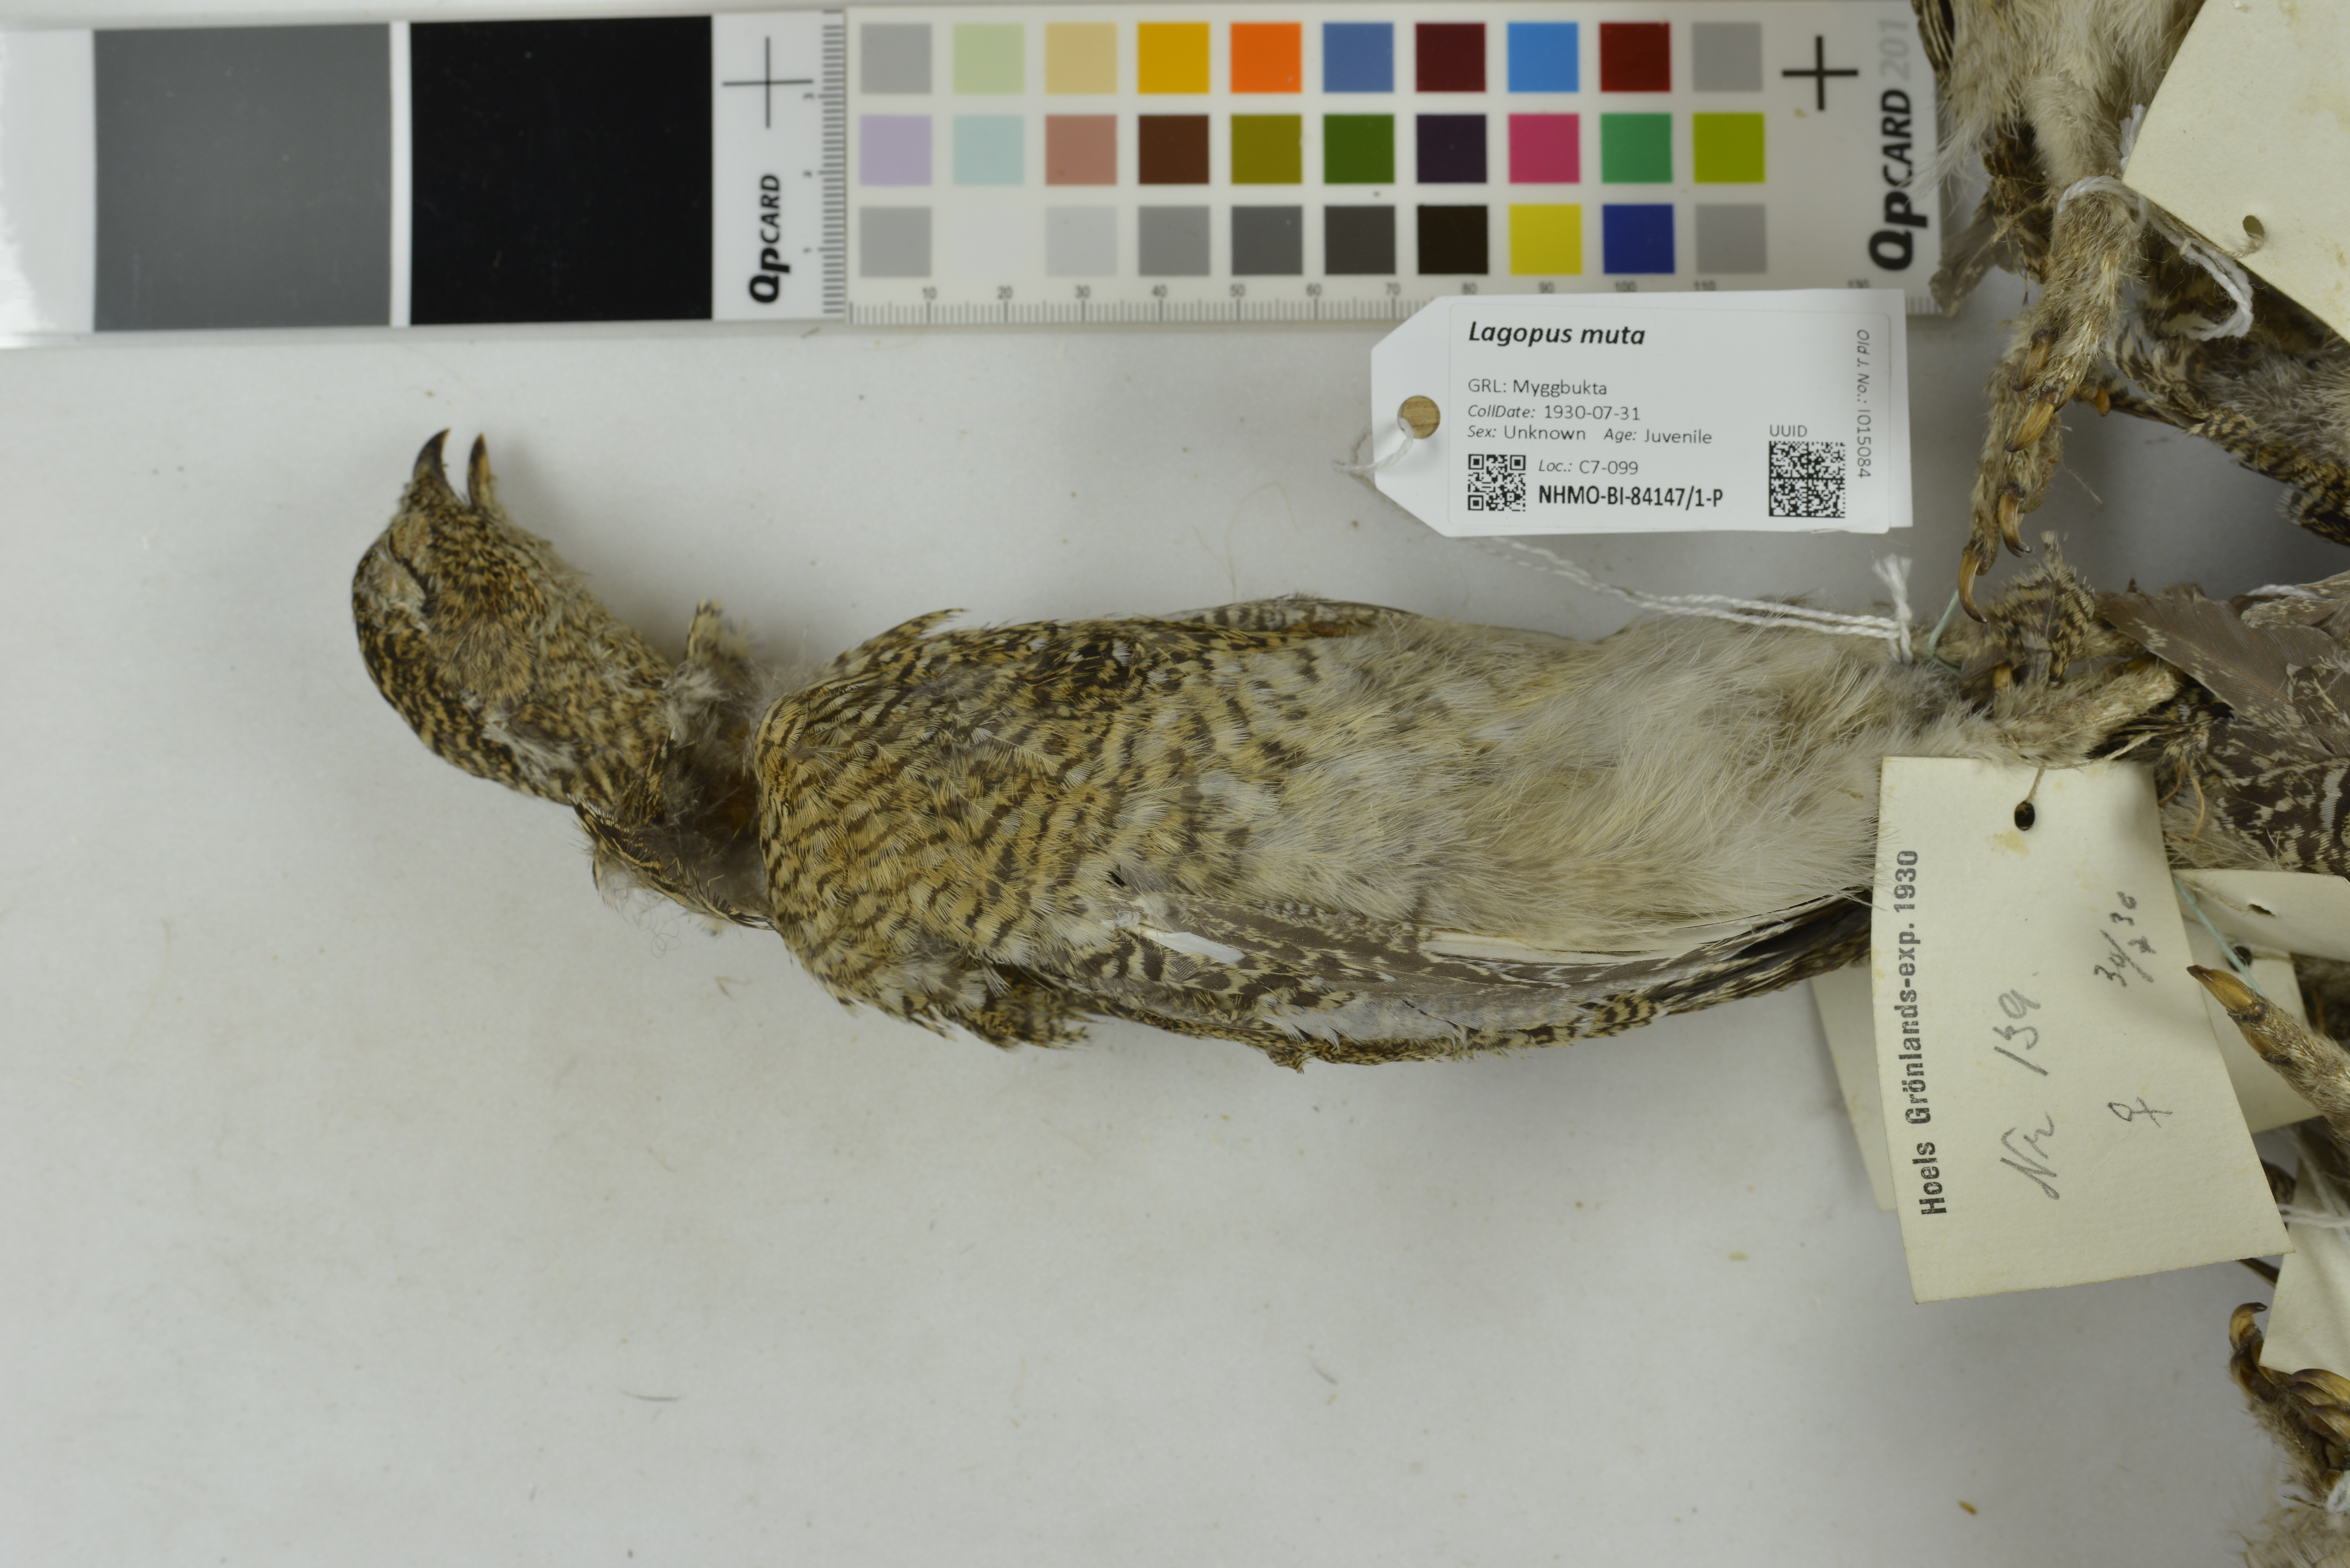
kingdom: Animalia
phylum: Chordata
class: Aves
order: Galliformes
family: Phasianidae
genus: Lagopus
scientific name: Lagopus muta
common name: Rock ptarmigan
